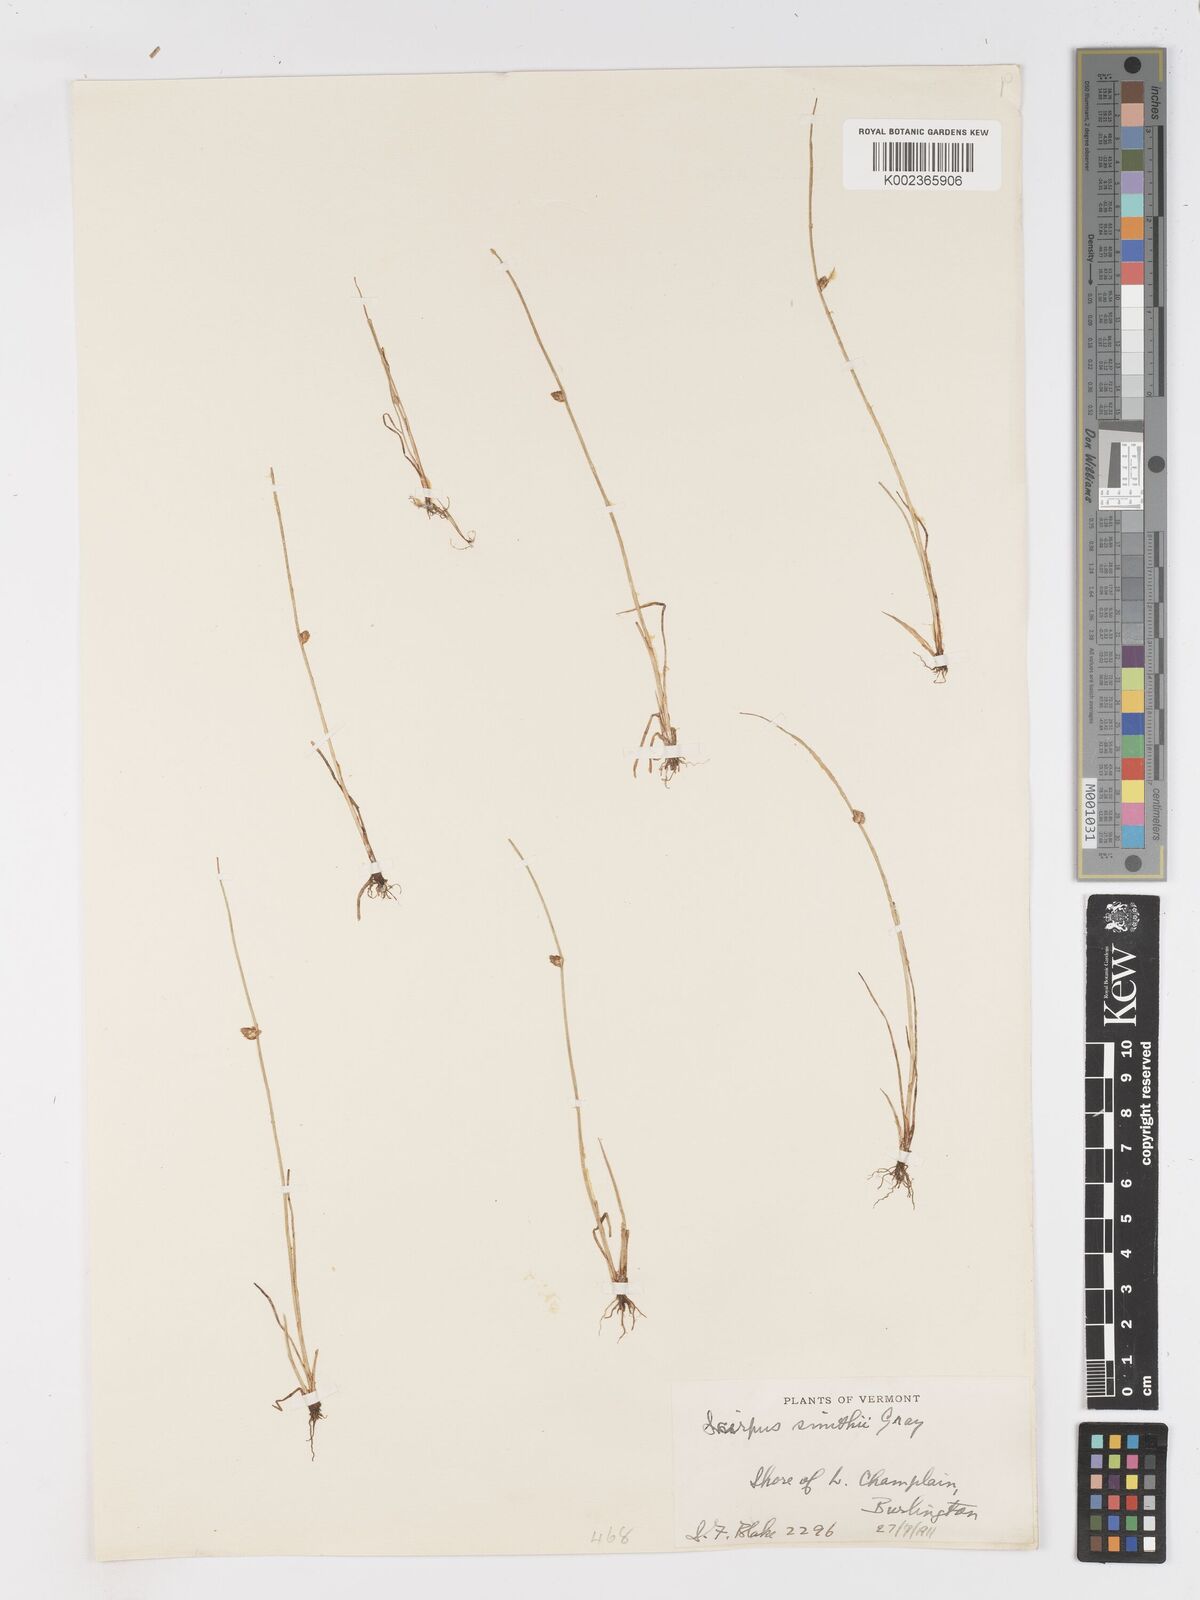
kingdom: Plantae
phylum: Tracheophyta
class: Liliopsida
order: Poales
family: Cyperaceae
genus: Schoenoplectiella
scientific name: Schoenoplectiella smithii
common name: Smith's bulrush
